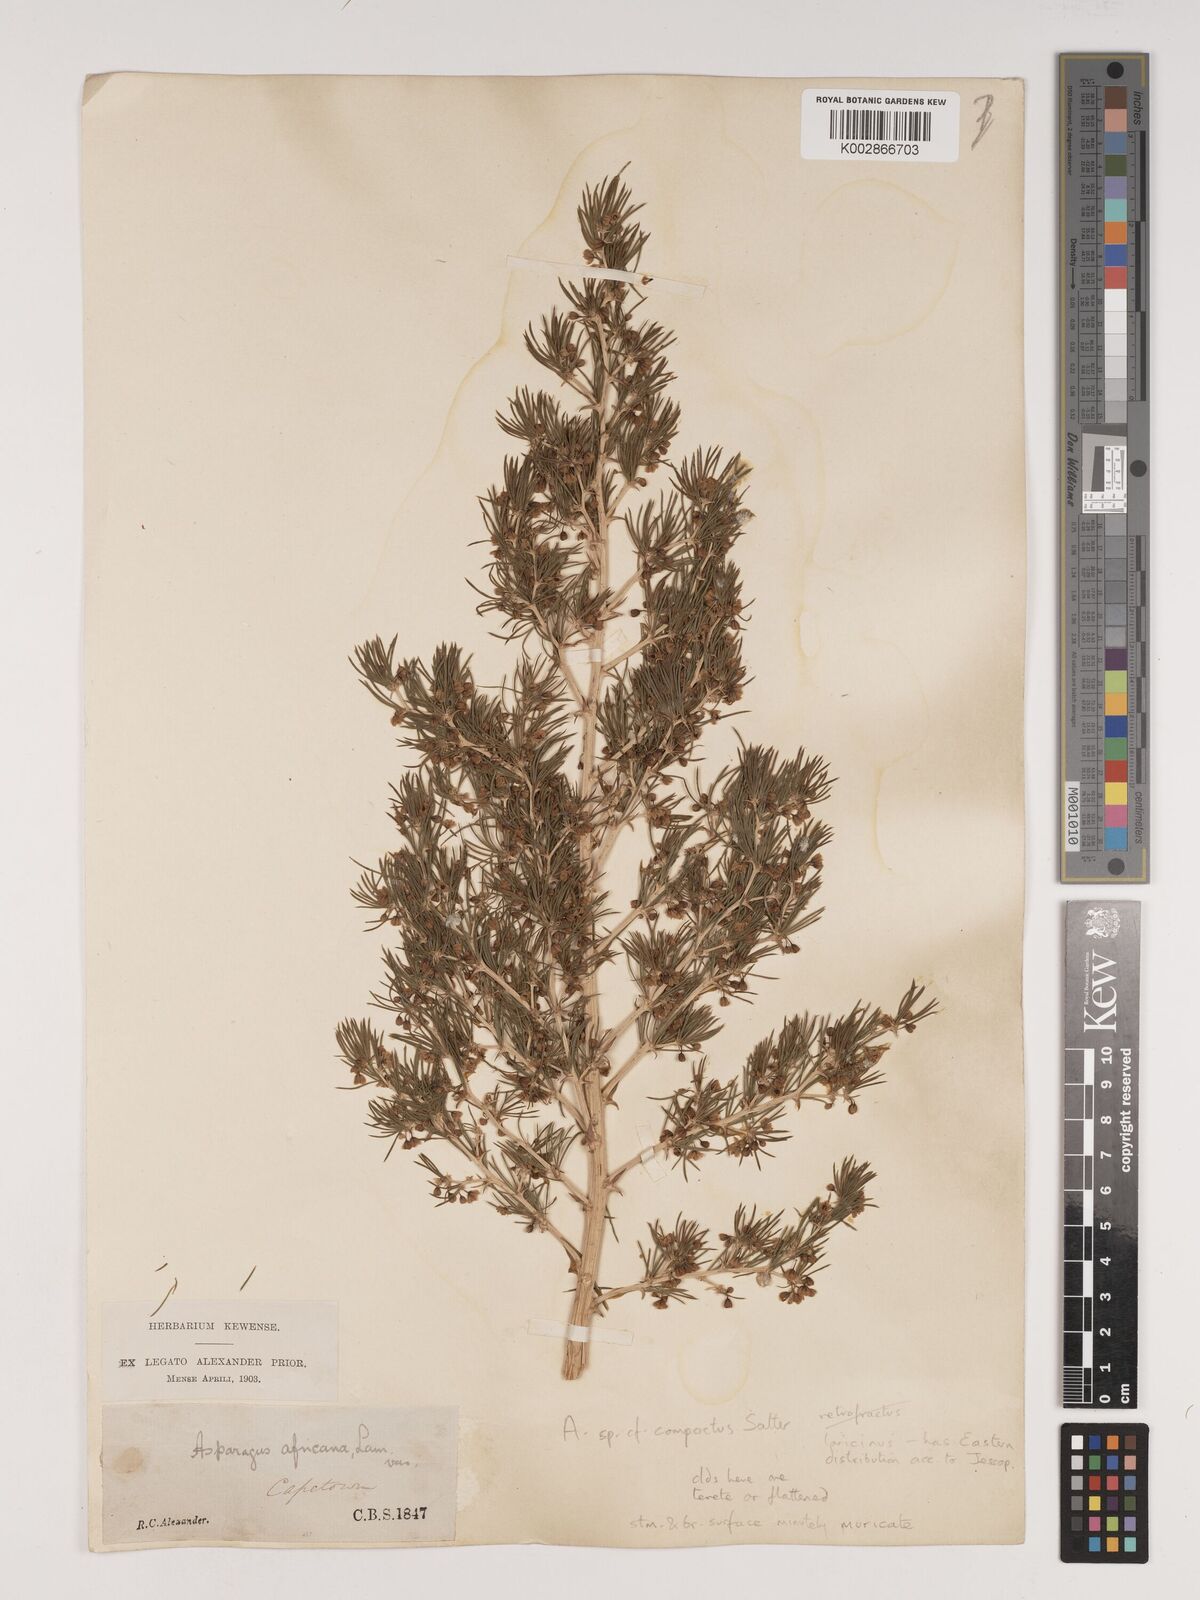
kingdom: Plantae
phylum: Tracheophyta
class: Liliopsida
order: Asparagales
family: Asparagaceae
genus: Asparagus
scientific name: Asparagus lignosus
